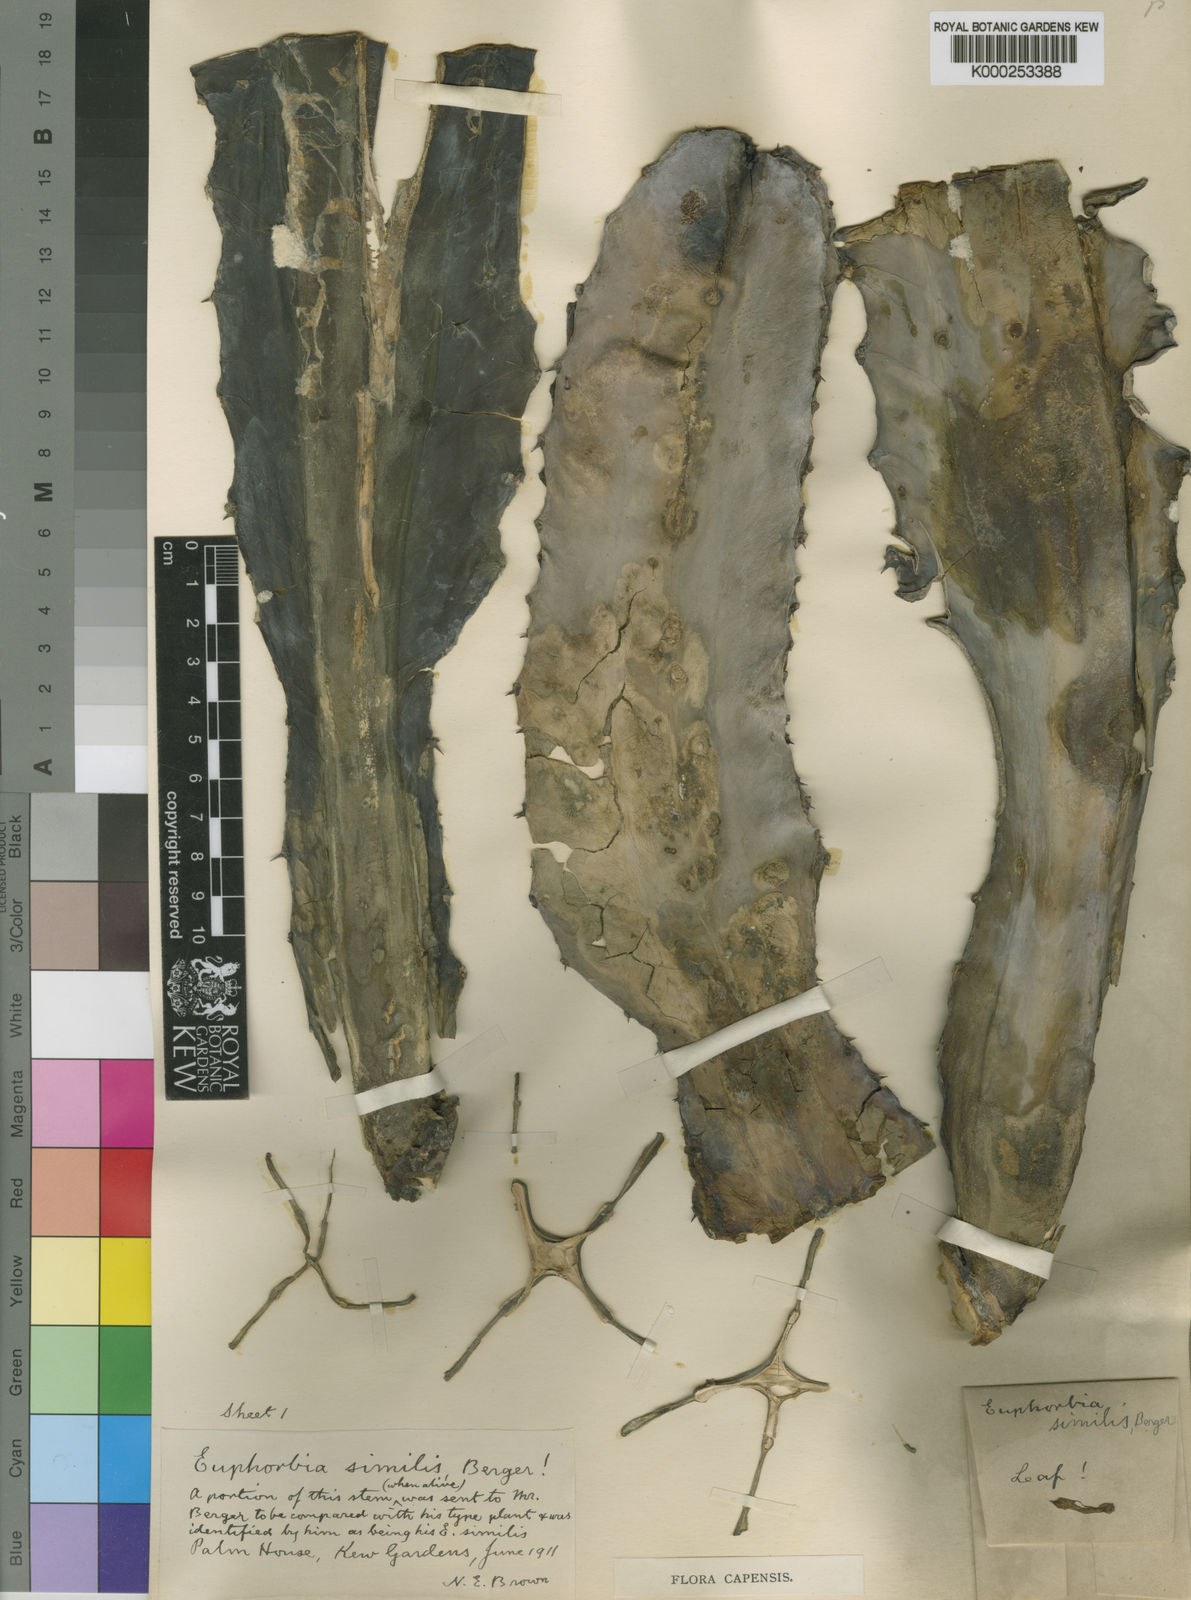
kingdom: Plantae
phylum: Tracheophyta
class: Magnoliopsida
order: Malpighiales
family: Euphorbiaceae
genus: Euphorbia
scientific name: Euphorbia ingens
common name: Cactus spurge
